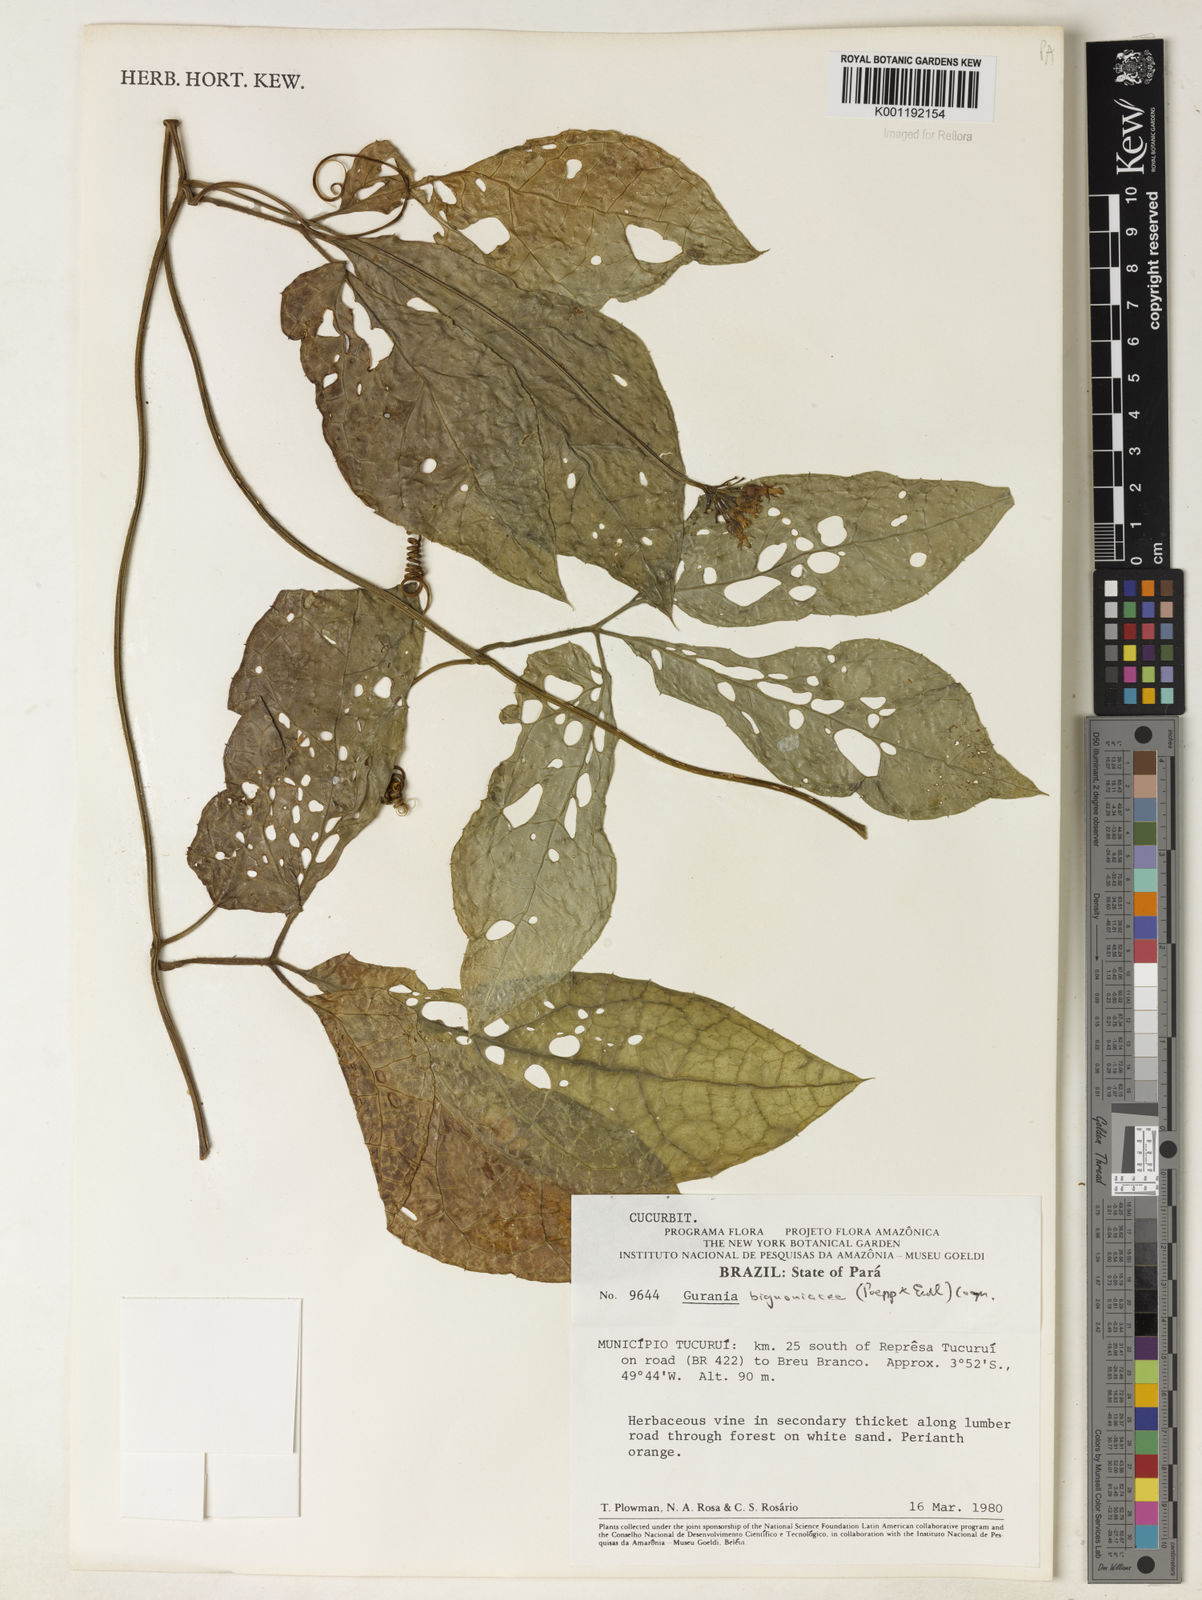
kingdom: Plantae
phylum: Tracheophyta
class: Magnoliopsida
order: Cucurbitales
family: Cucurbitaceae
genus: Gurania
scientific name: Gurania bignoniacea
